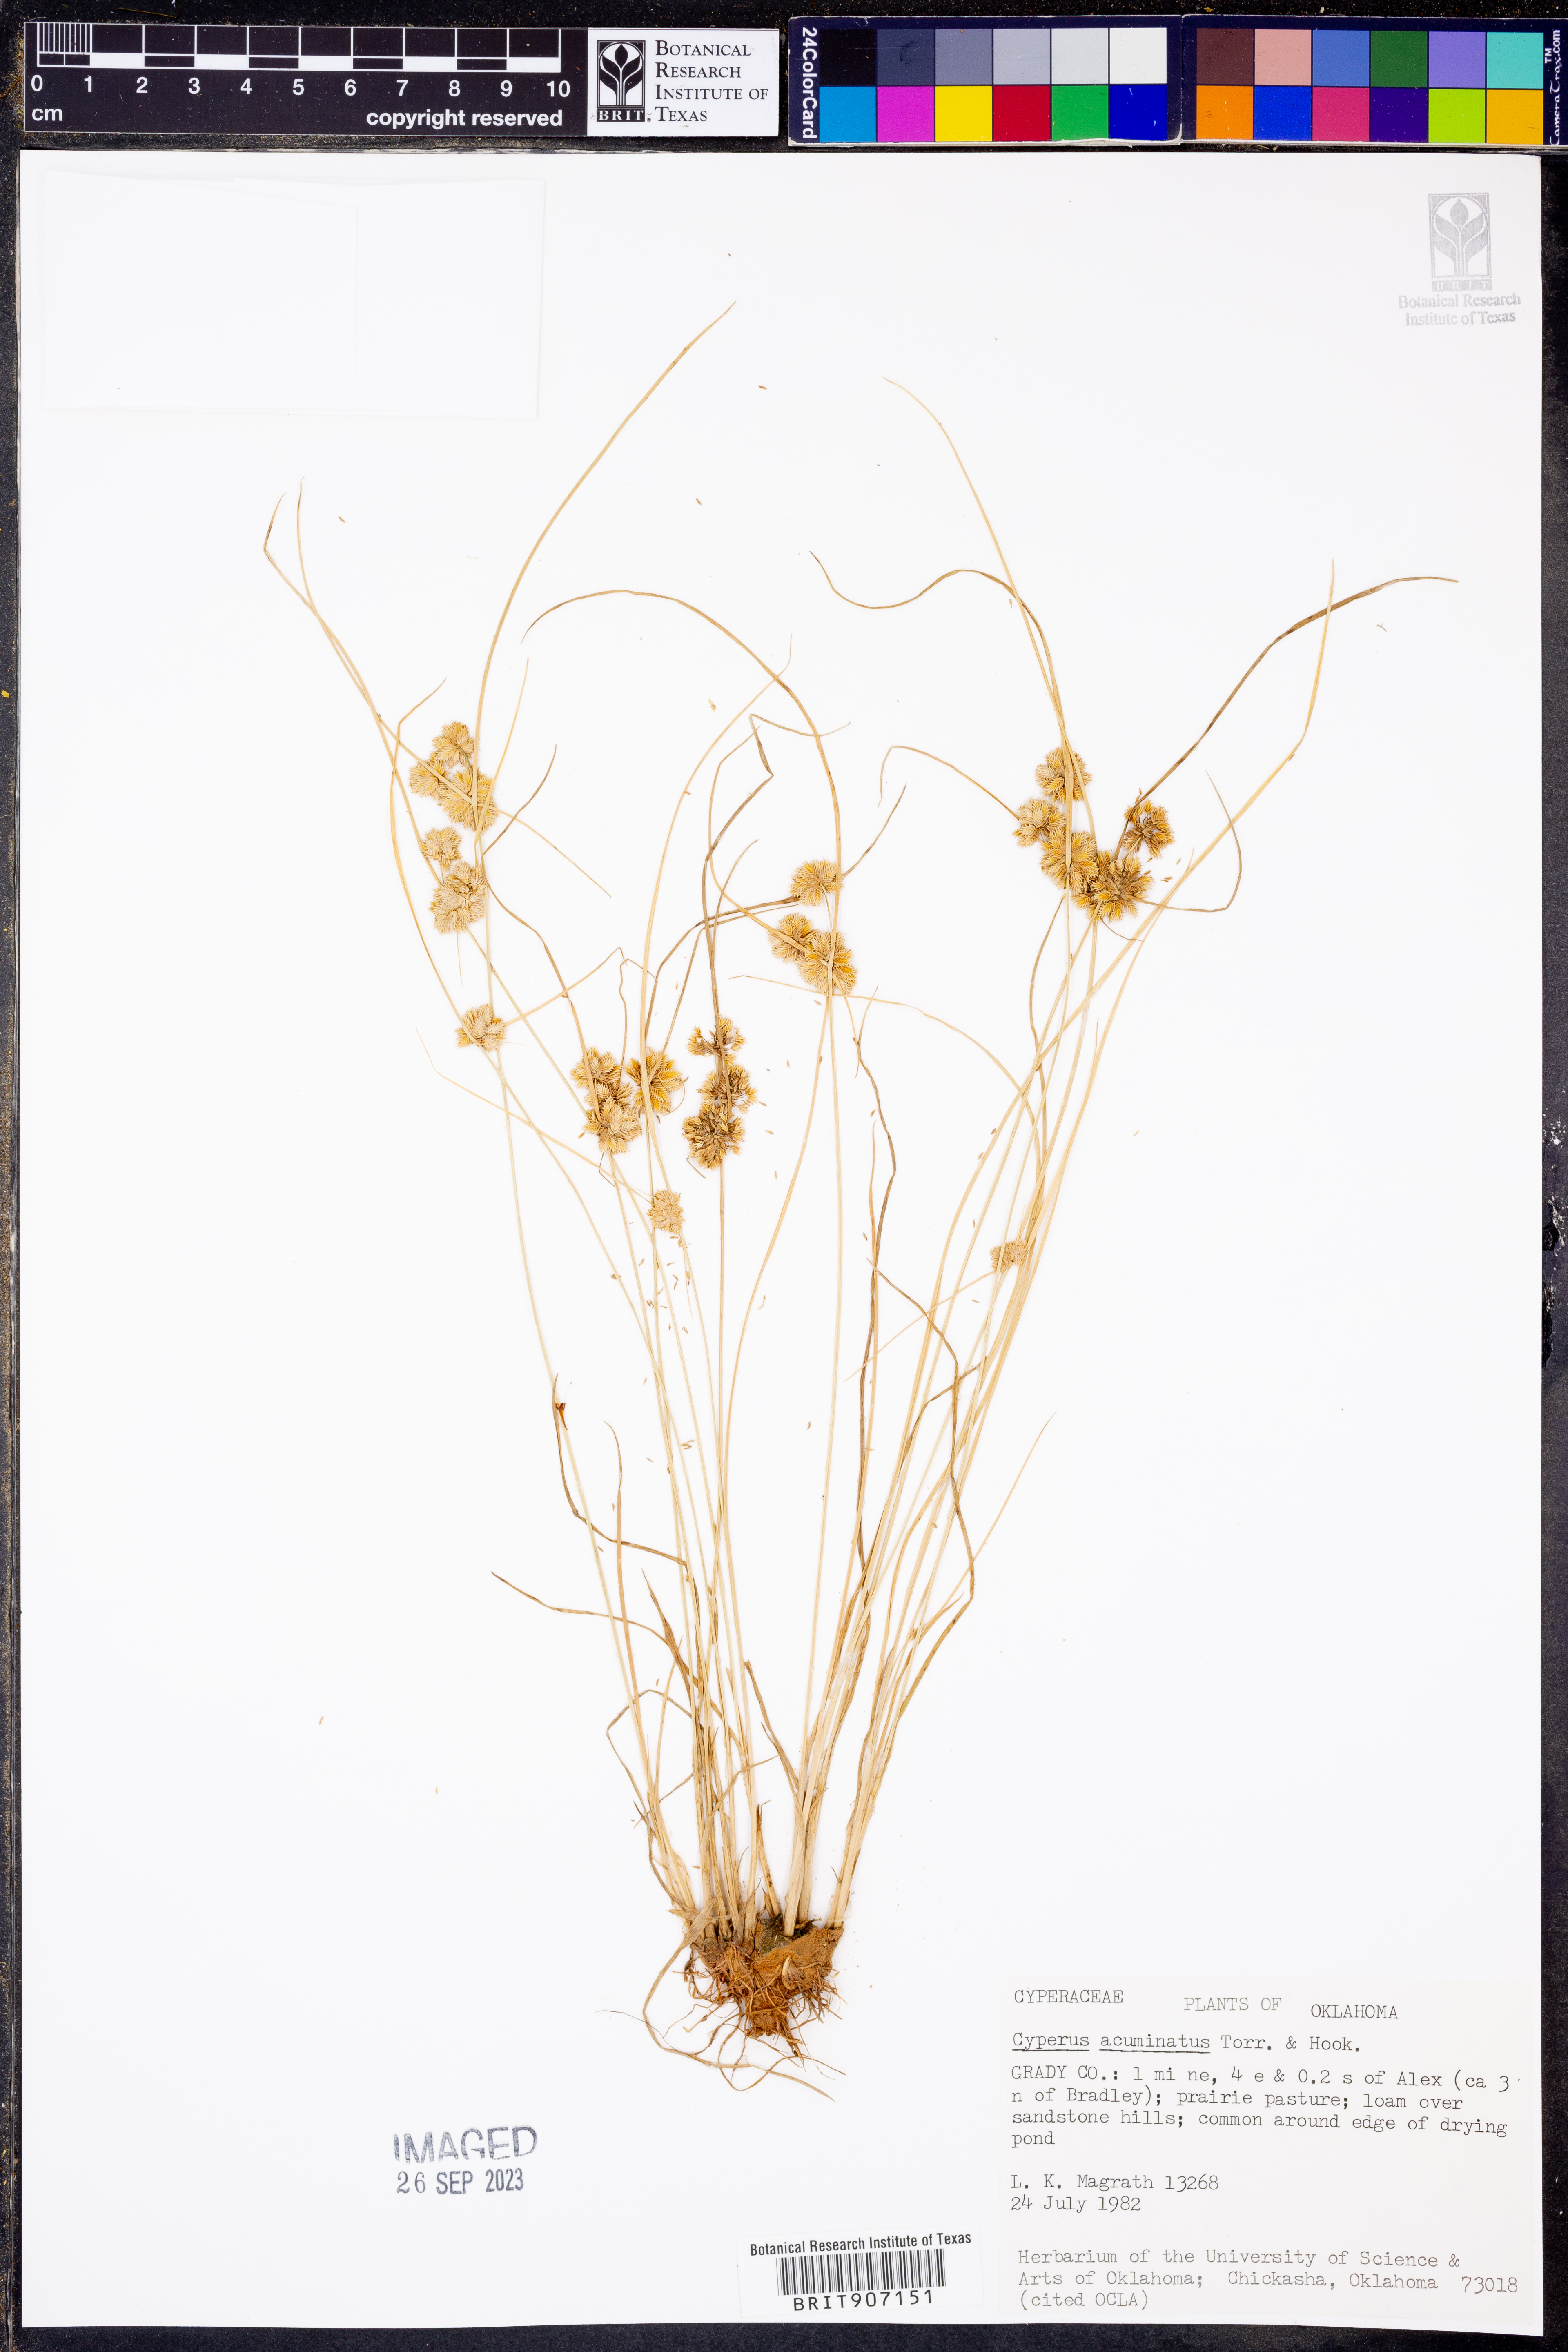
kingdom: Plantae
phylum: Tracheophyta
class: Liliopsida
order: Poales
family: Cyperaceae
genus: Cyperus
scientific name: Cyperus acuminatus
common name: Short-pointed cyperus
